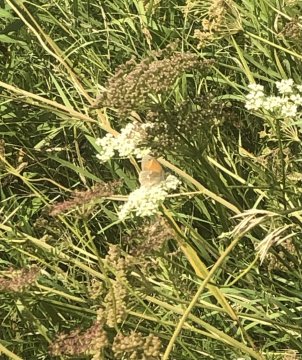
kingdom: Animalia
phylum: Arthropoda
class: Insecta
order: Lepidoptera
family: Nymphalidae
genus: Coenonympha
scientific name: Coenonympha tullia
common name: Large Heath
